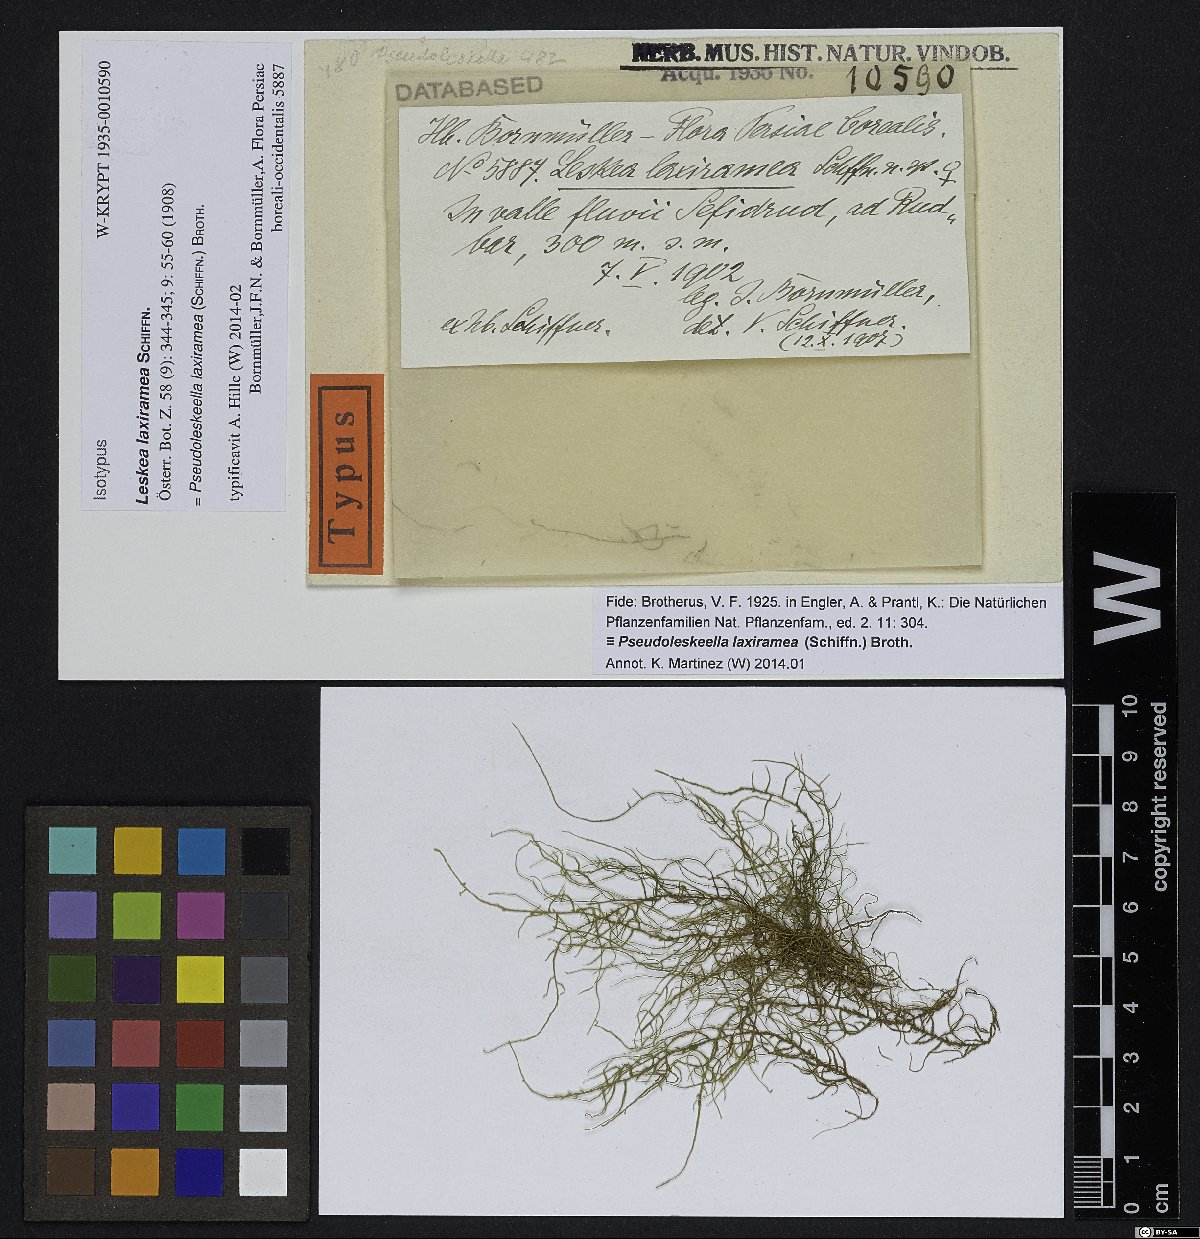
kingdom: Plantae
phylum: Bryophyta
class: Bryopsida
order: Hypnales
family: Neckeraceae
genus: Leptodon
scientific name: Leptodon remotifolius
